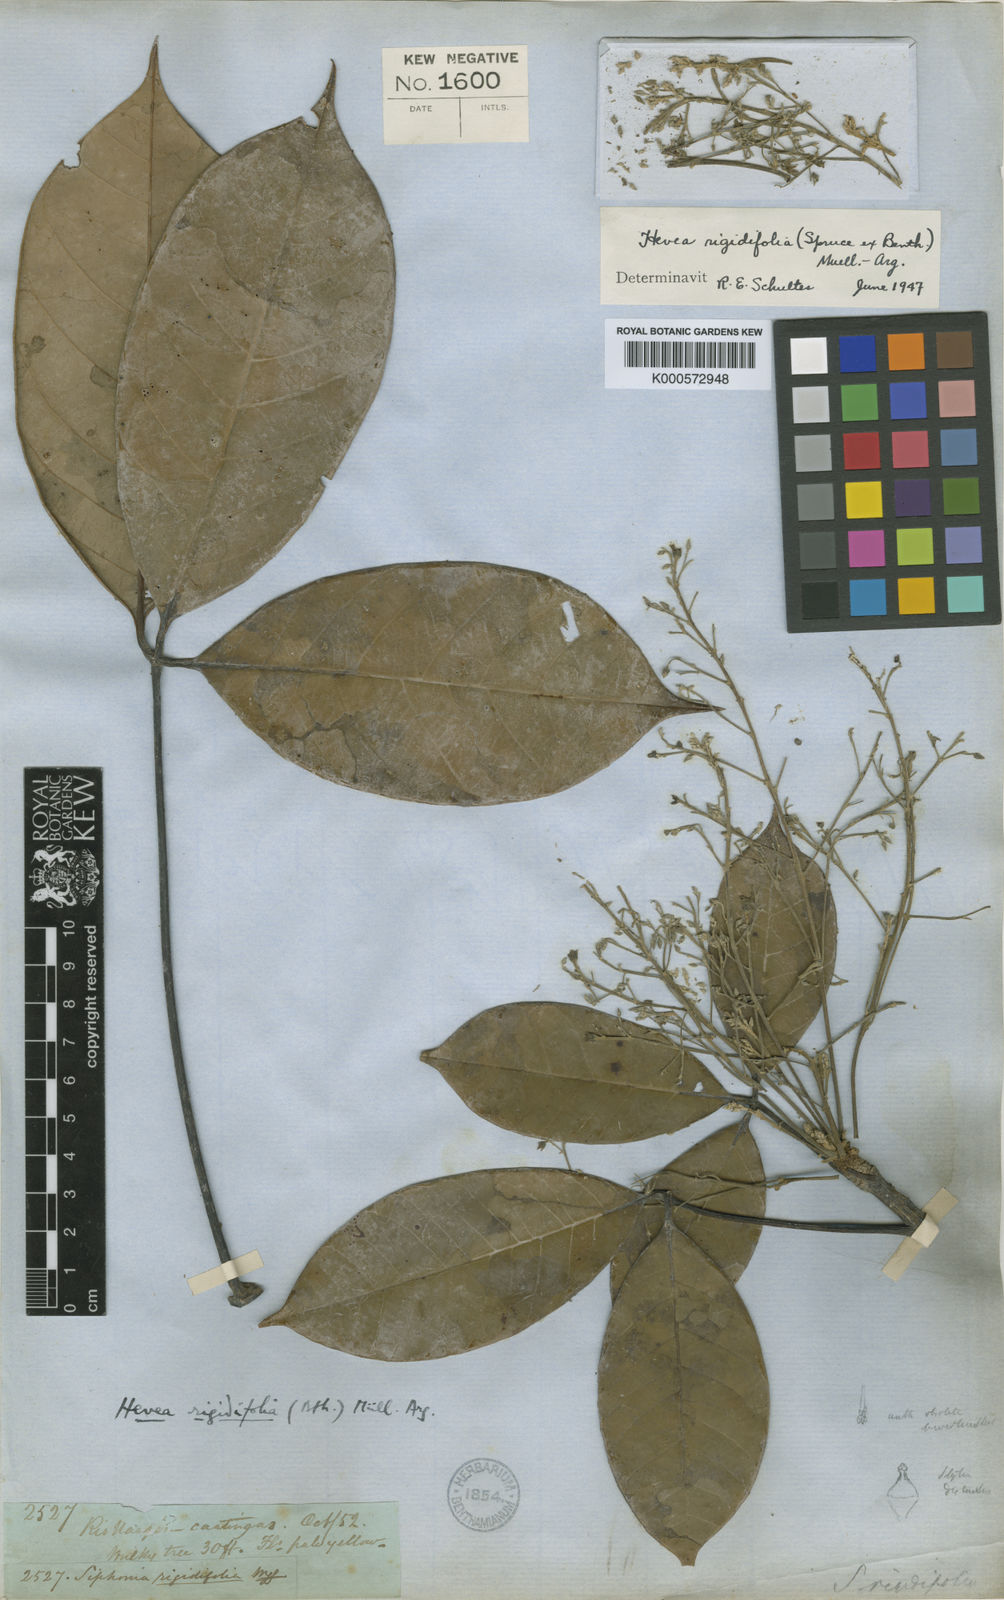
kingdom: Plantae
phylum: Tracheophyta
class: Magnoliopsida
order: Malpighiales
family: Euphorbiaceae
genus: Hevea
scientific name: Hevea
